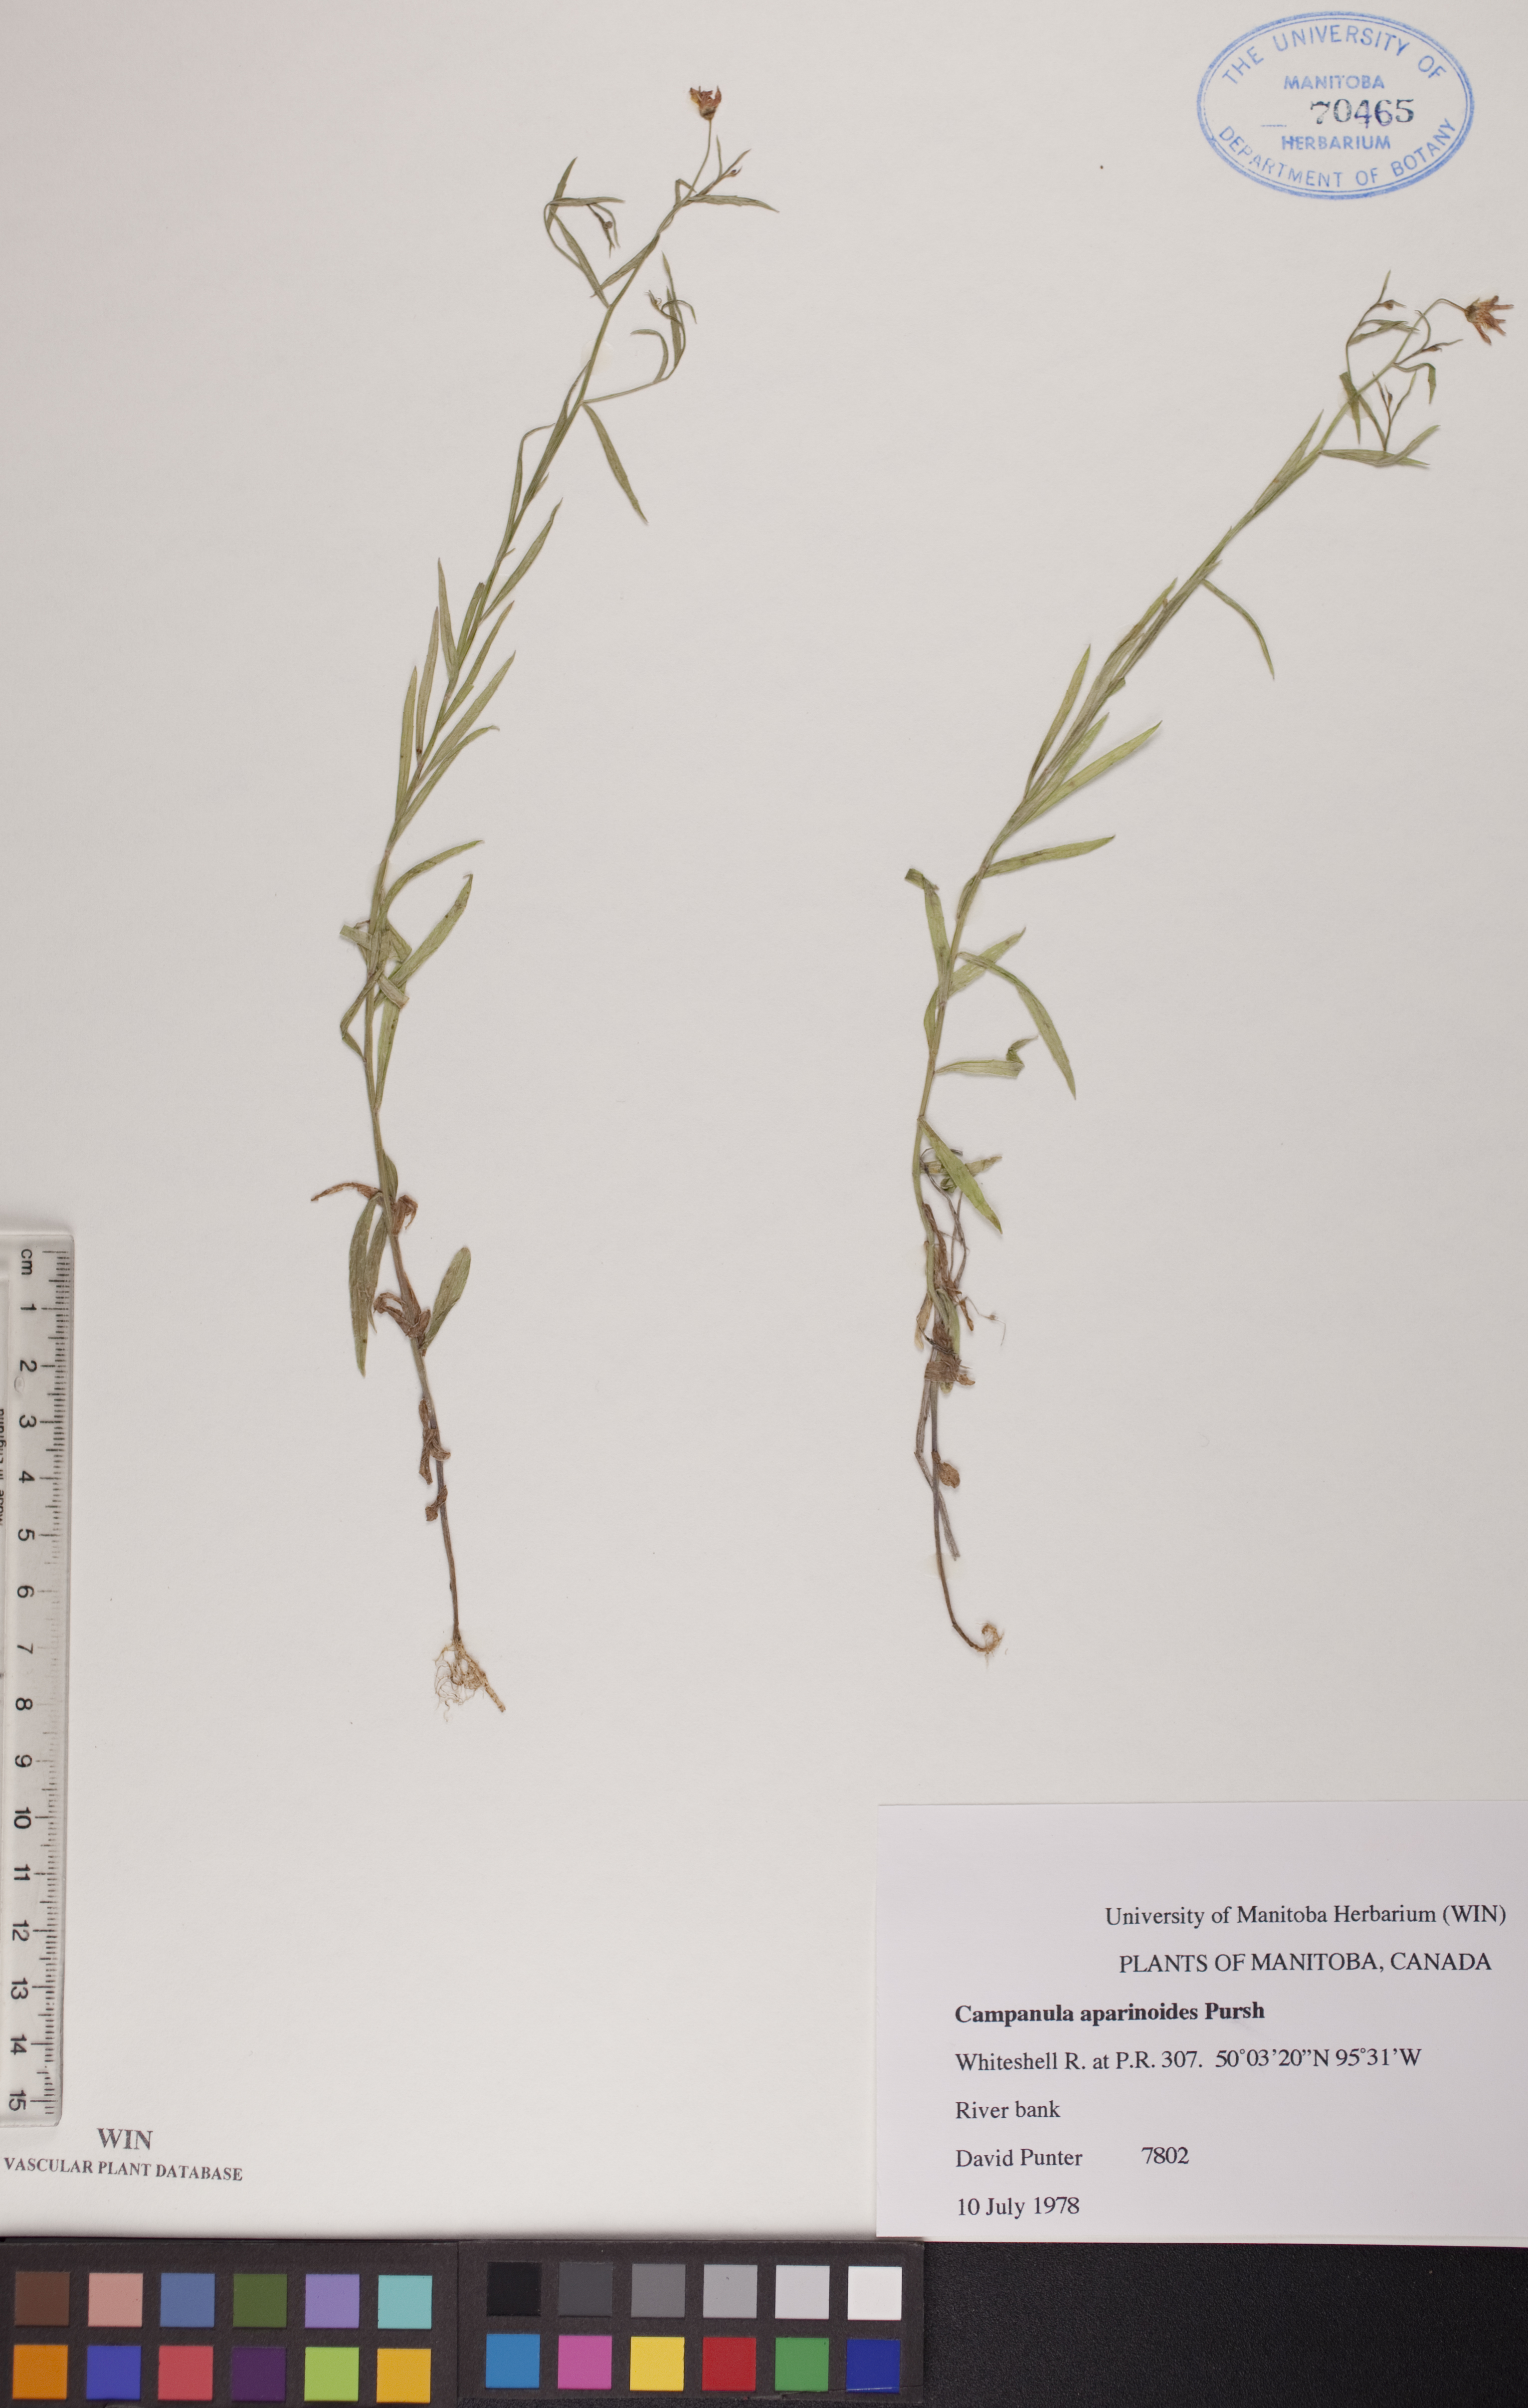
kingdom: Plantae
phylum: Tracheophyta
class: Magnoliopsida
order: Asterales
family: Campanulaceae
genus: Palustricodon
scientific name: Palustricodon aparinoides
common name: Bedstraw bellflower
